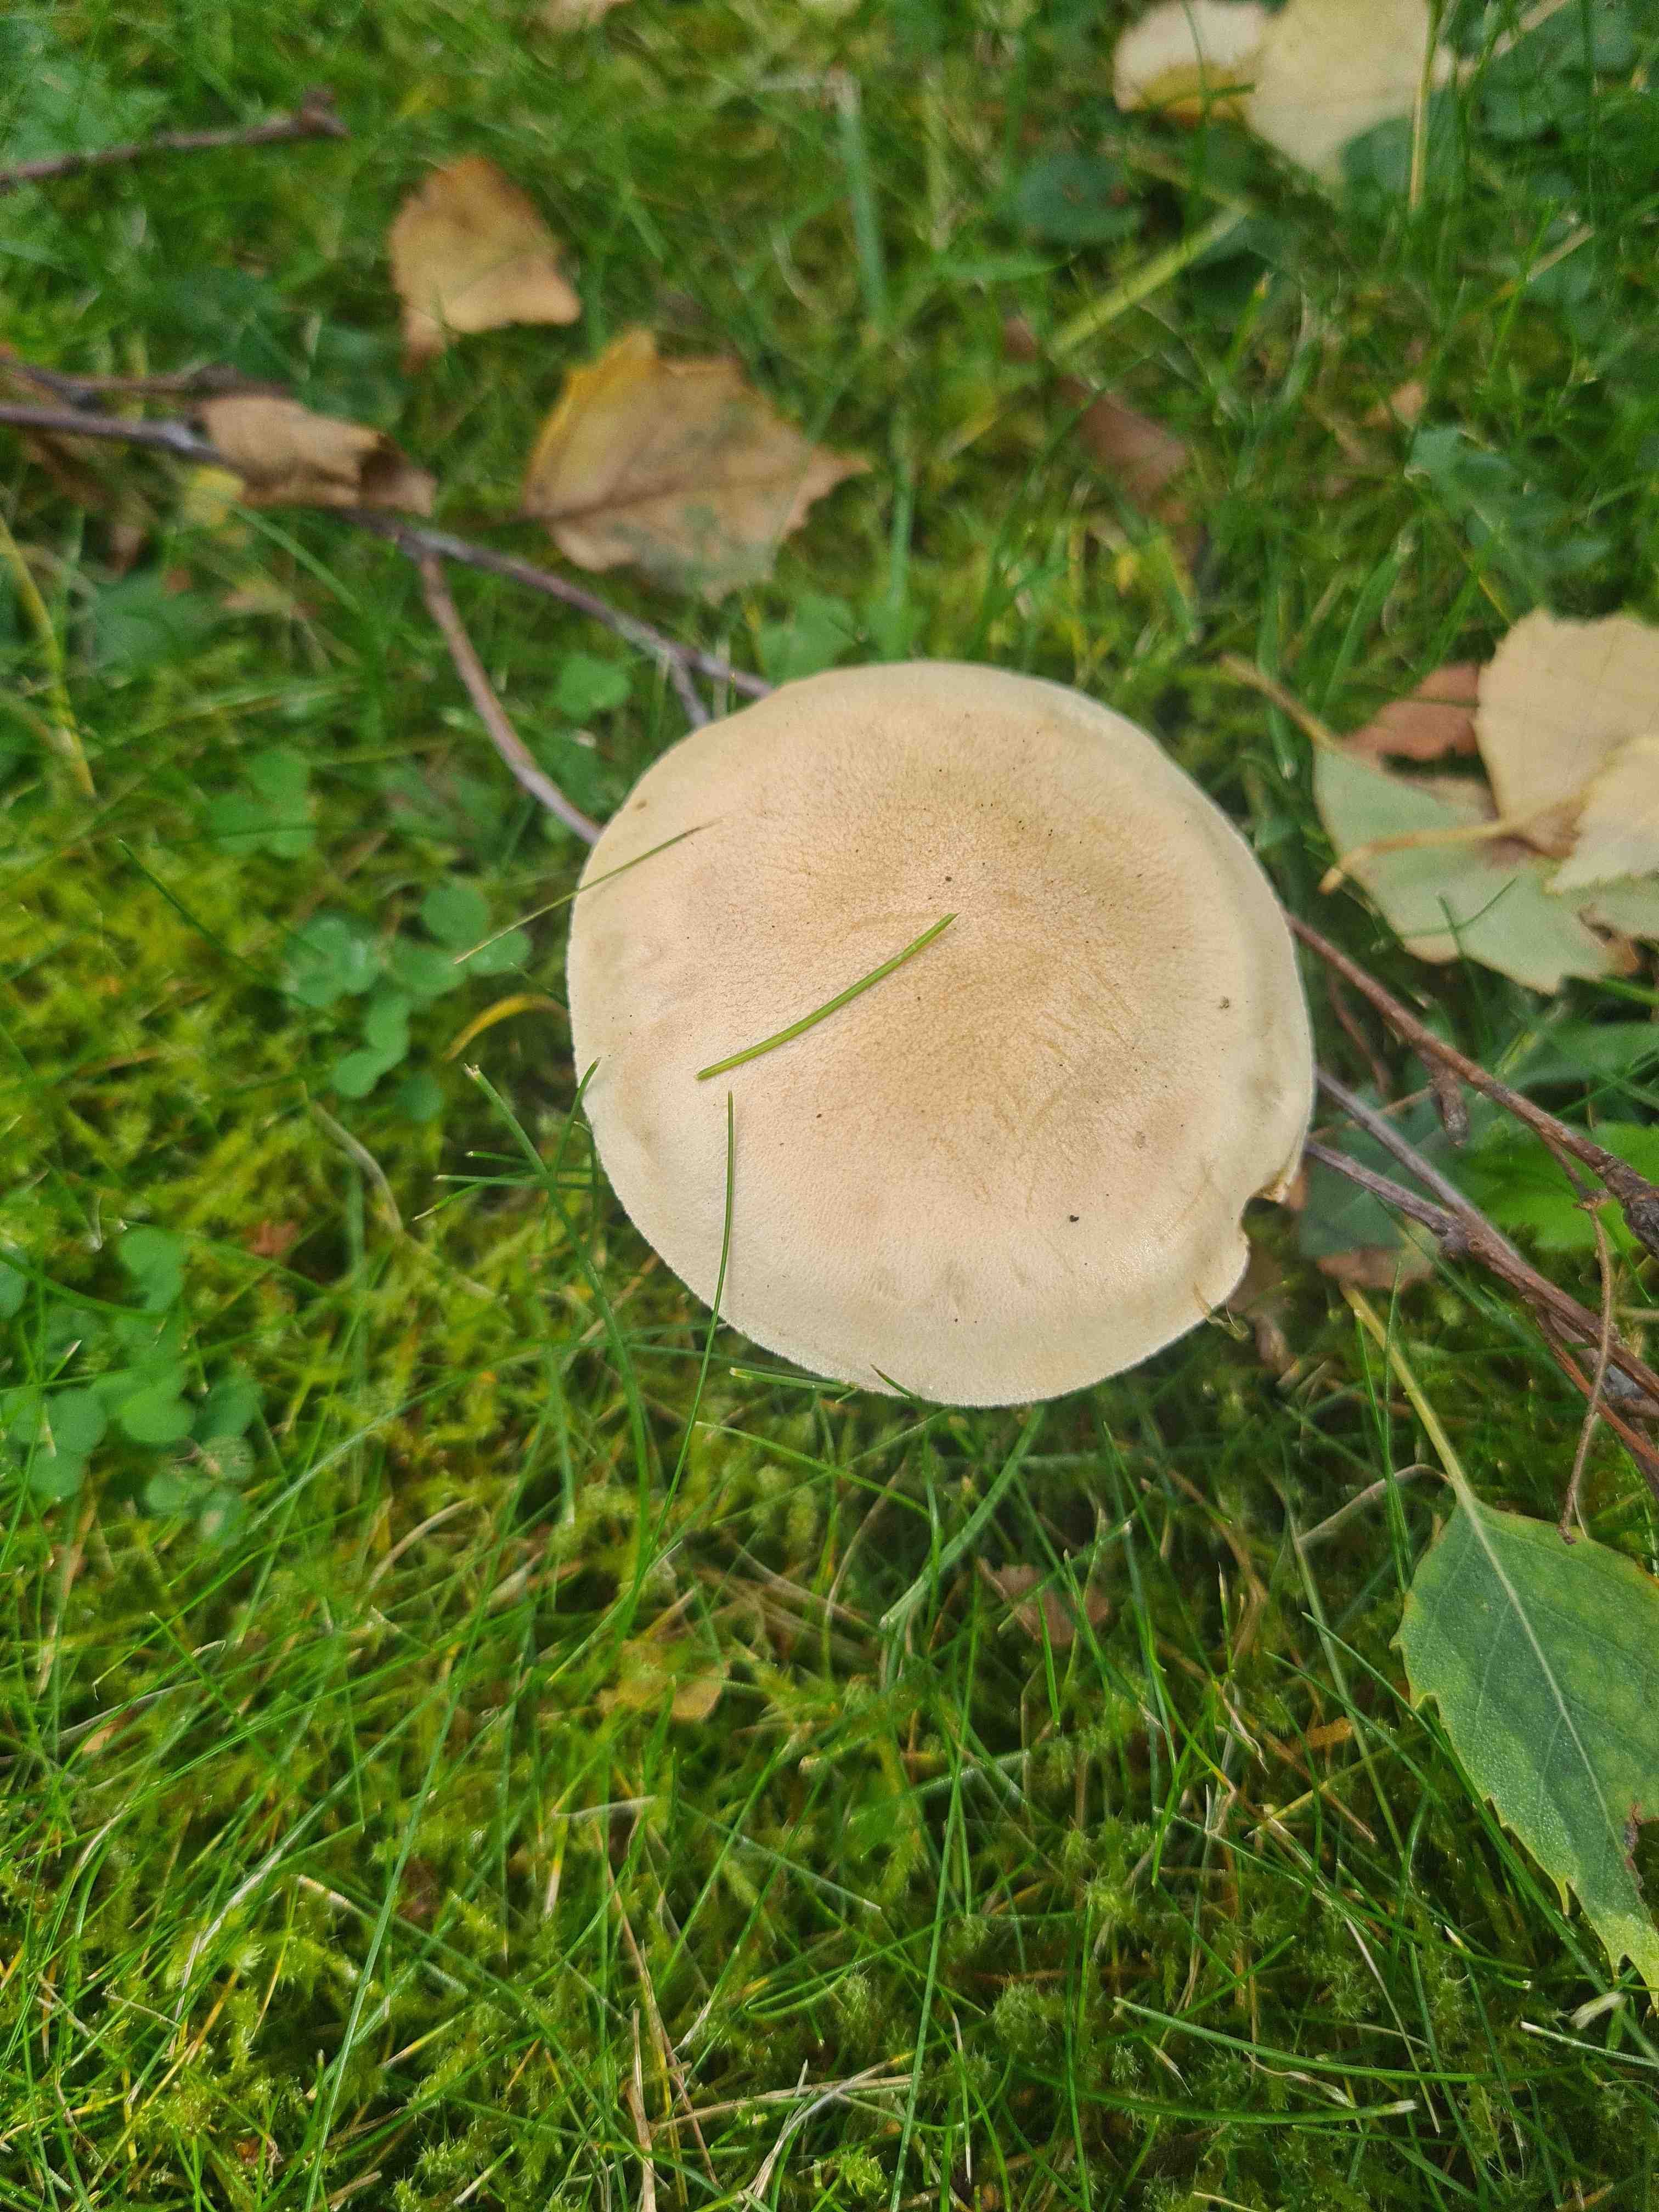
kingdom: Fungi
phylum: Basidiomycota
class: Agaricomycetes
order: Agaricales
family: Hymenogastraceae
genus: Hebeloma
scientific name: Hebeloma
